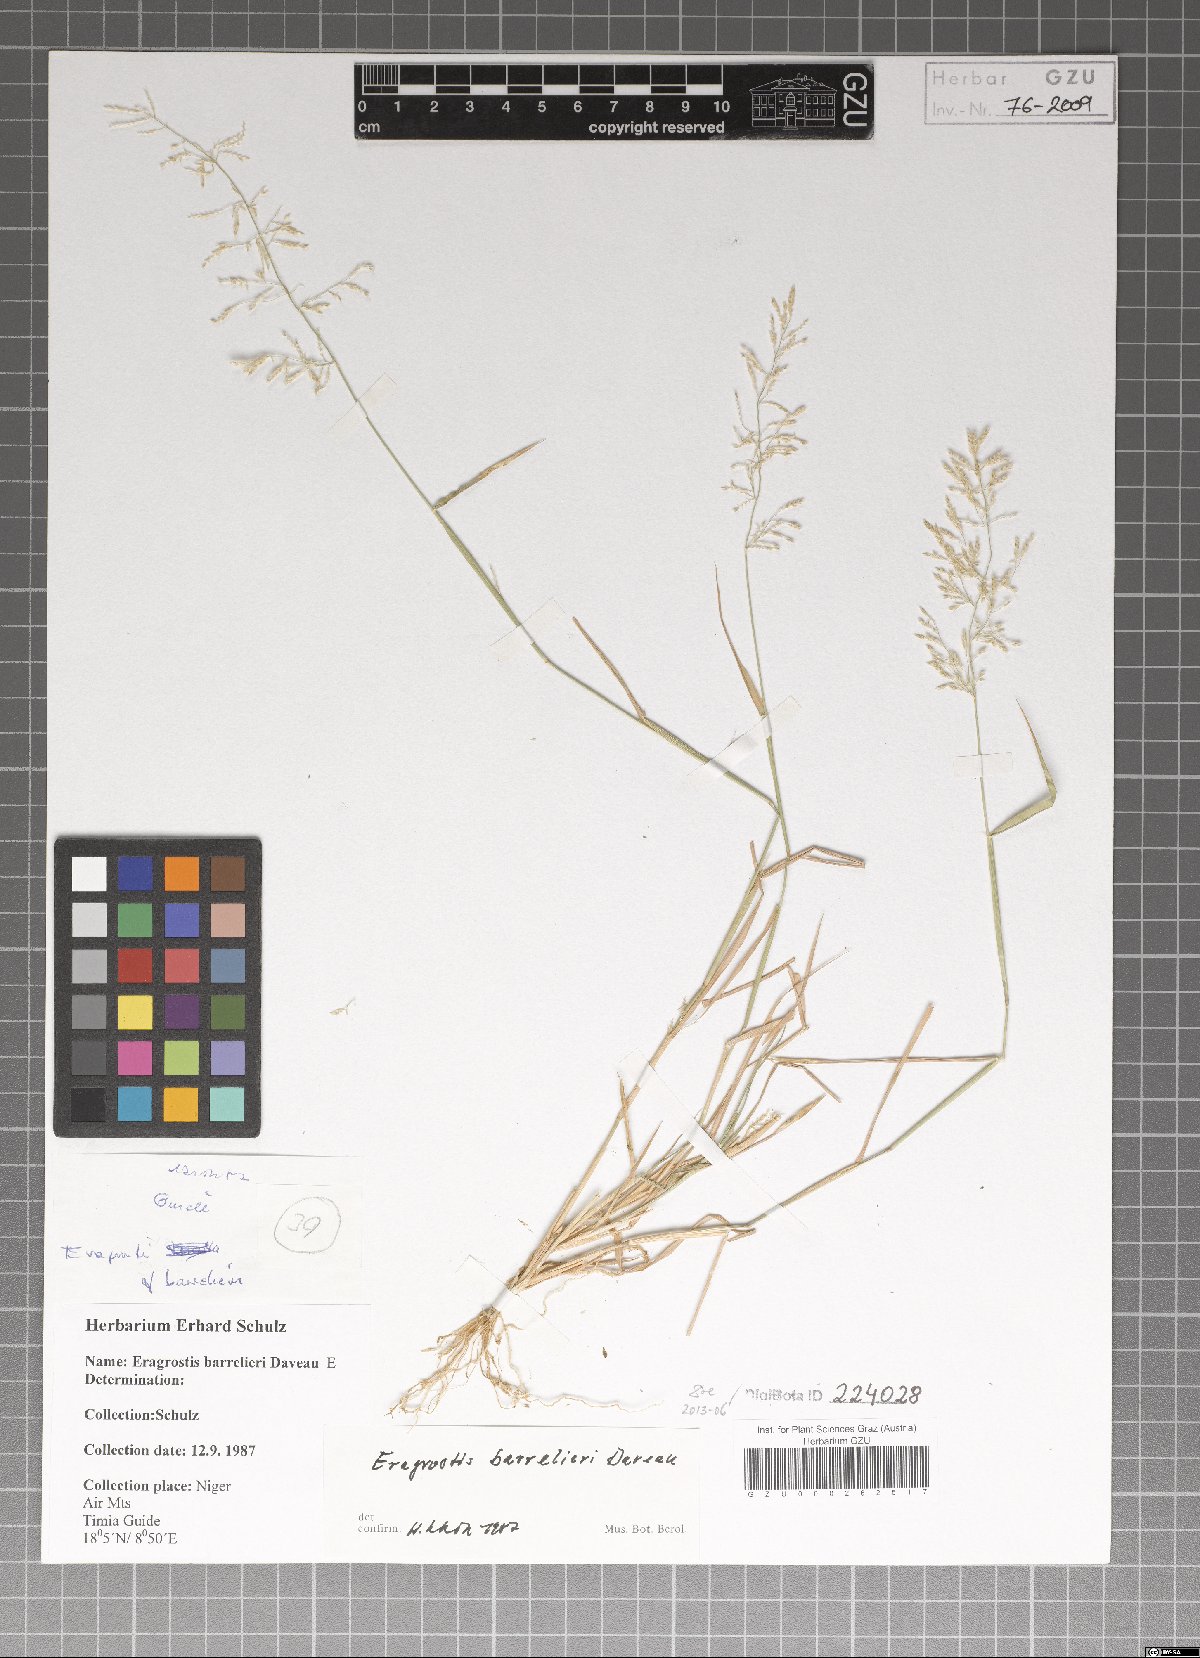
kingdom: Plantae
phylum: Tracheophyta
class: Liliopsida
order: Poales
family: Poaceae
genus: Eragrostis
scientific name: Eragrostis barrelieri
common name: Mediterranean lovegrass
